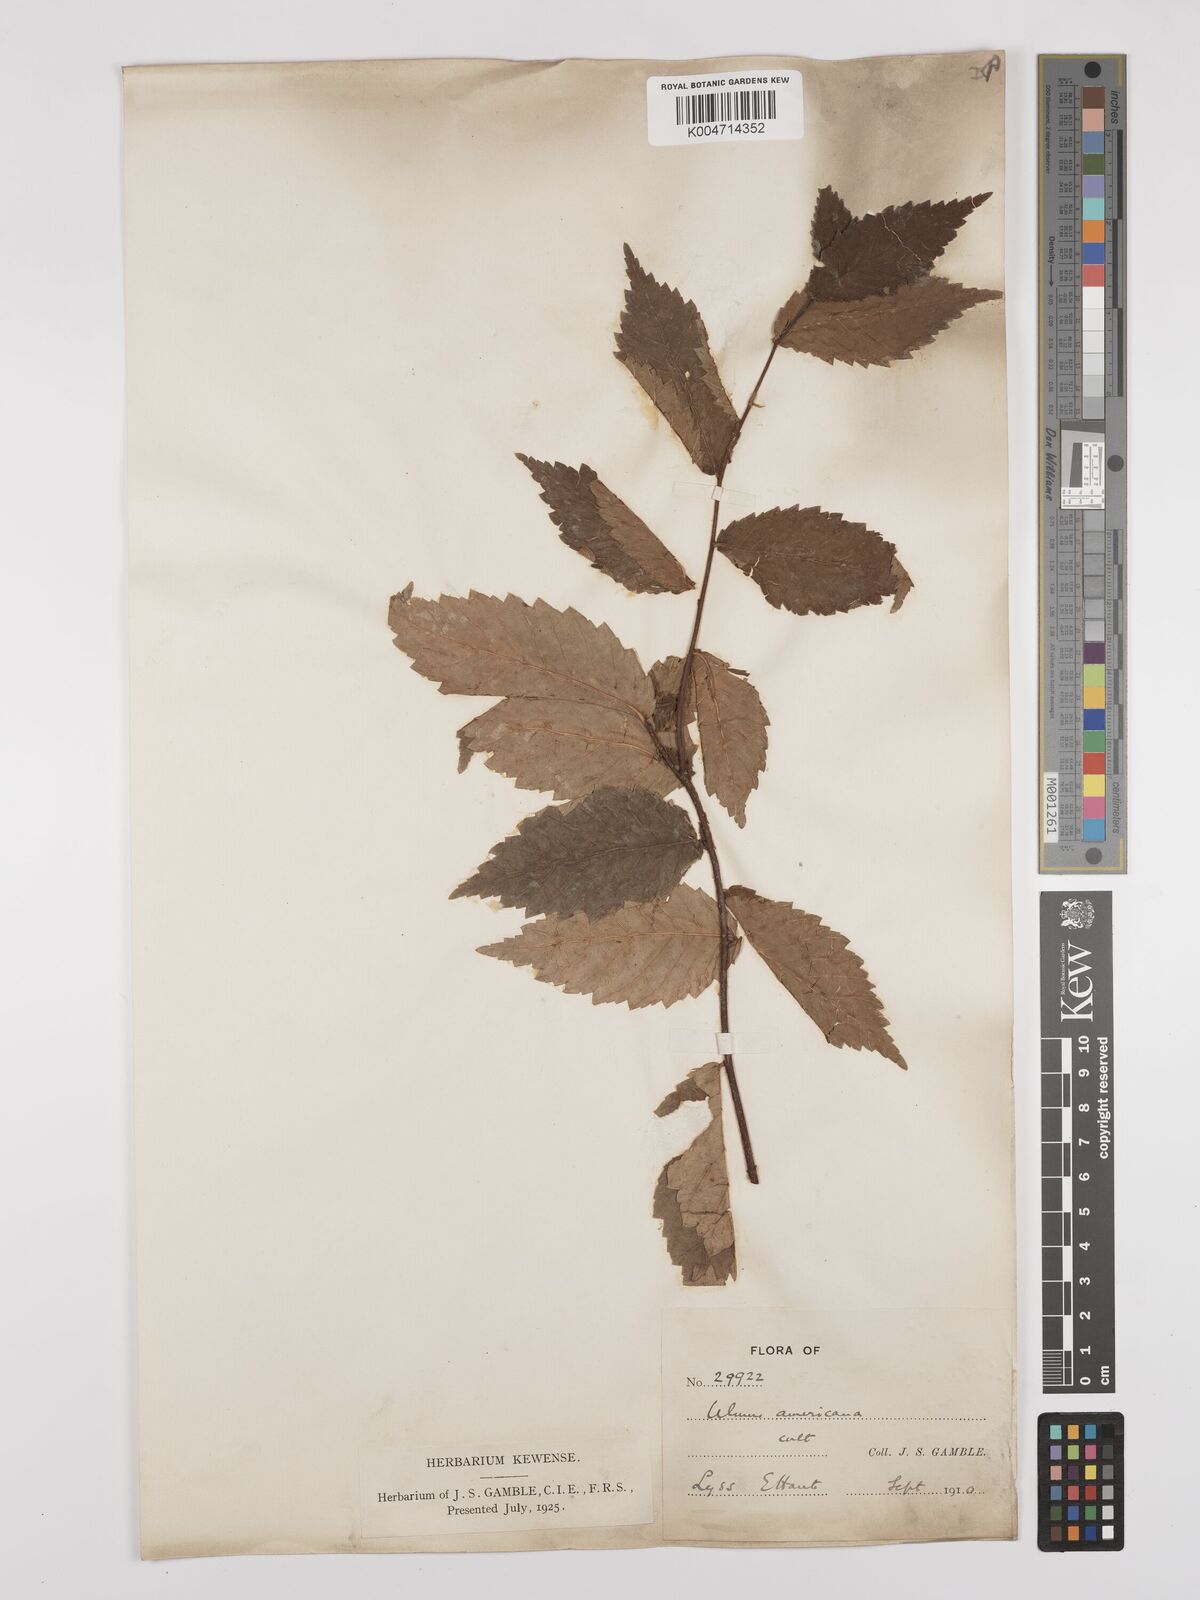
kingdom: Plantae
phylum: Tracheophyta
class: Magnoliopsida
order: Rosales
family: Ulmaceae
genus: Ulmus
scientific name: Ulmus americana
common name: American elm
